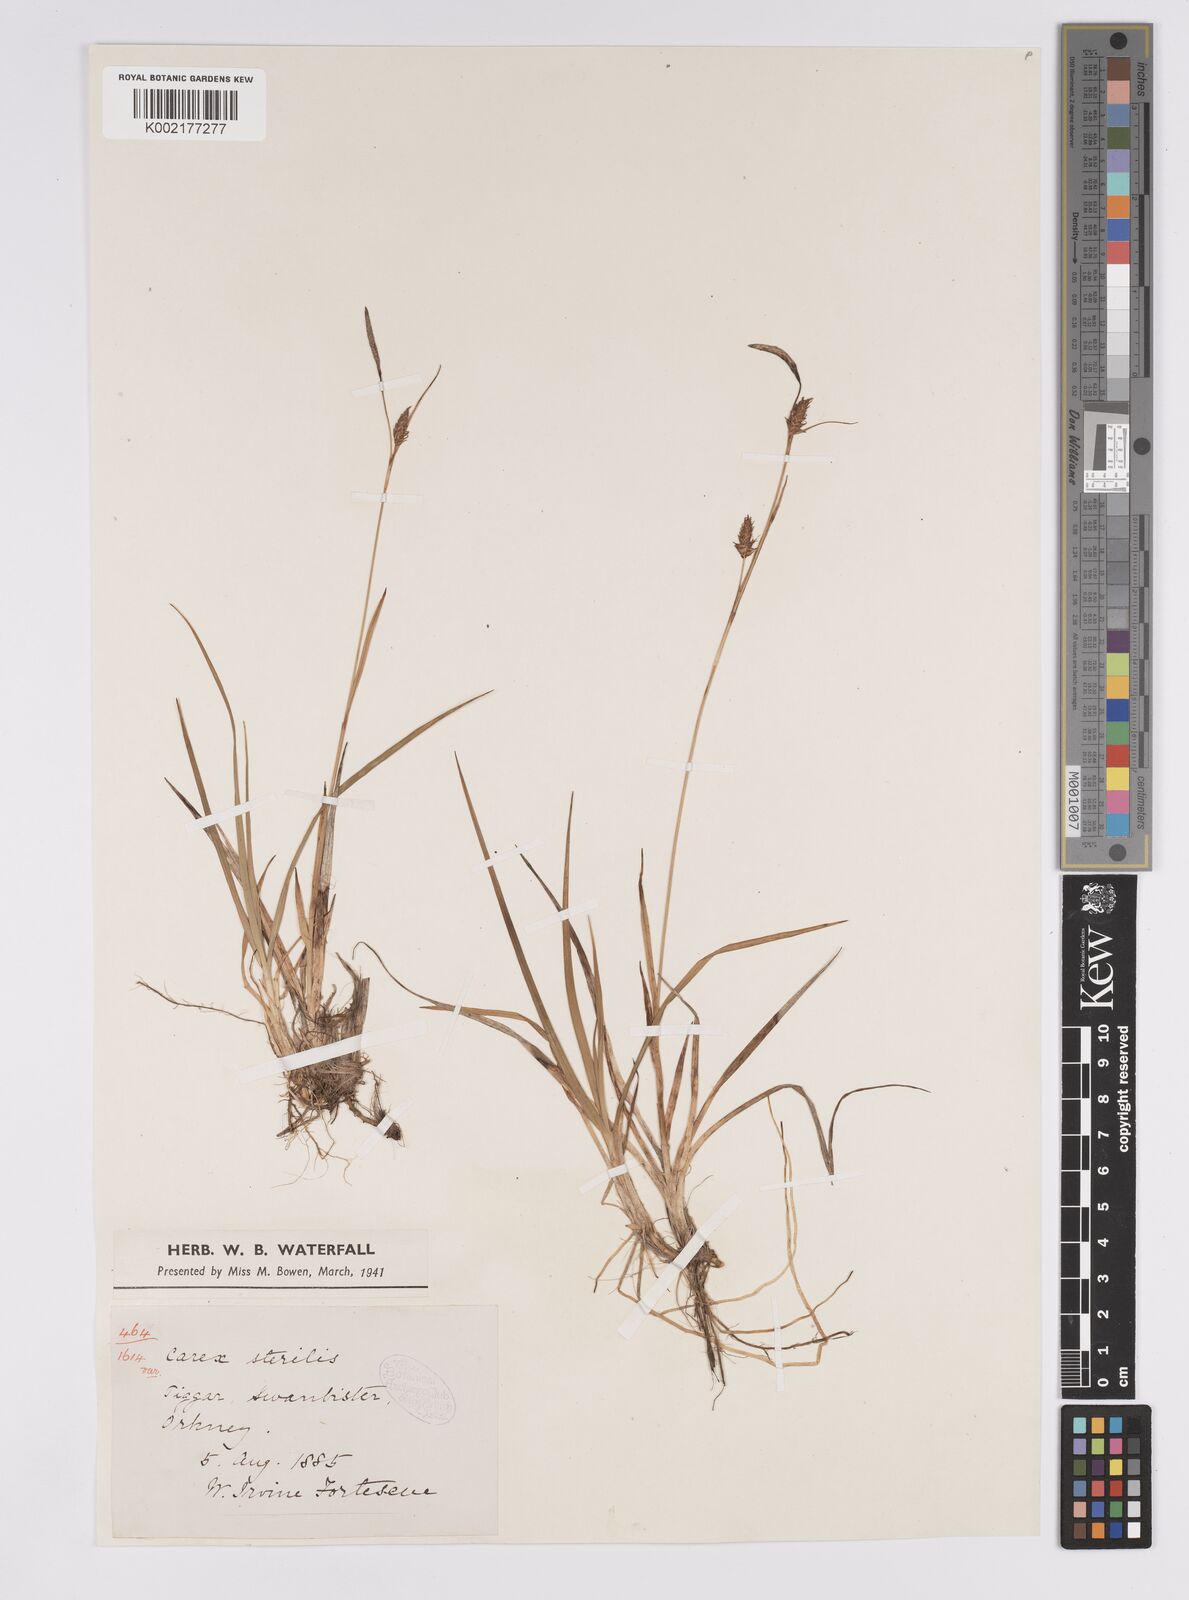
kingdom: Plantae
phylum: Tracheophyta
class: Liliopsida
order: Poales
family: Cyperaceae
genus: Carex
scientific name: Carex hostiana
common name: Tawny sedge
